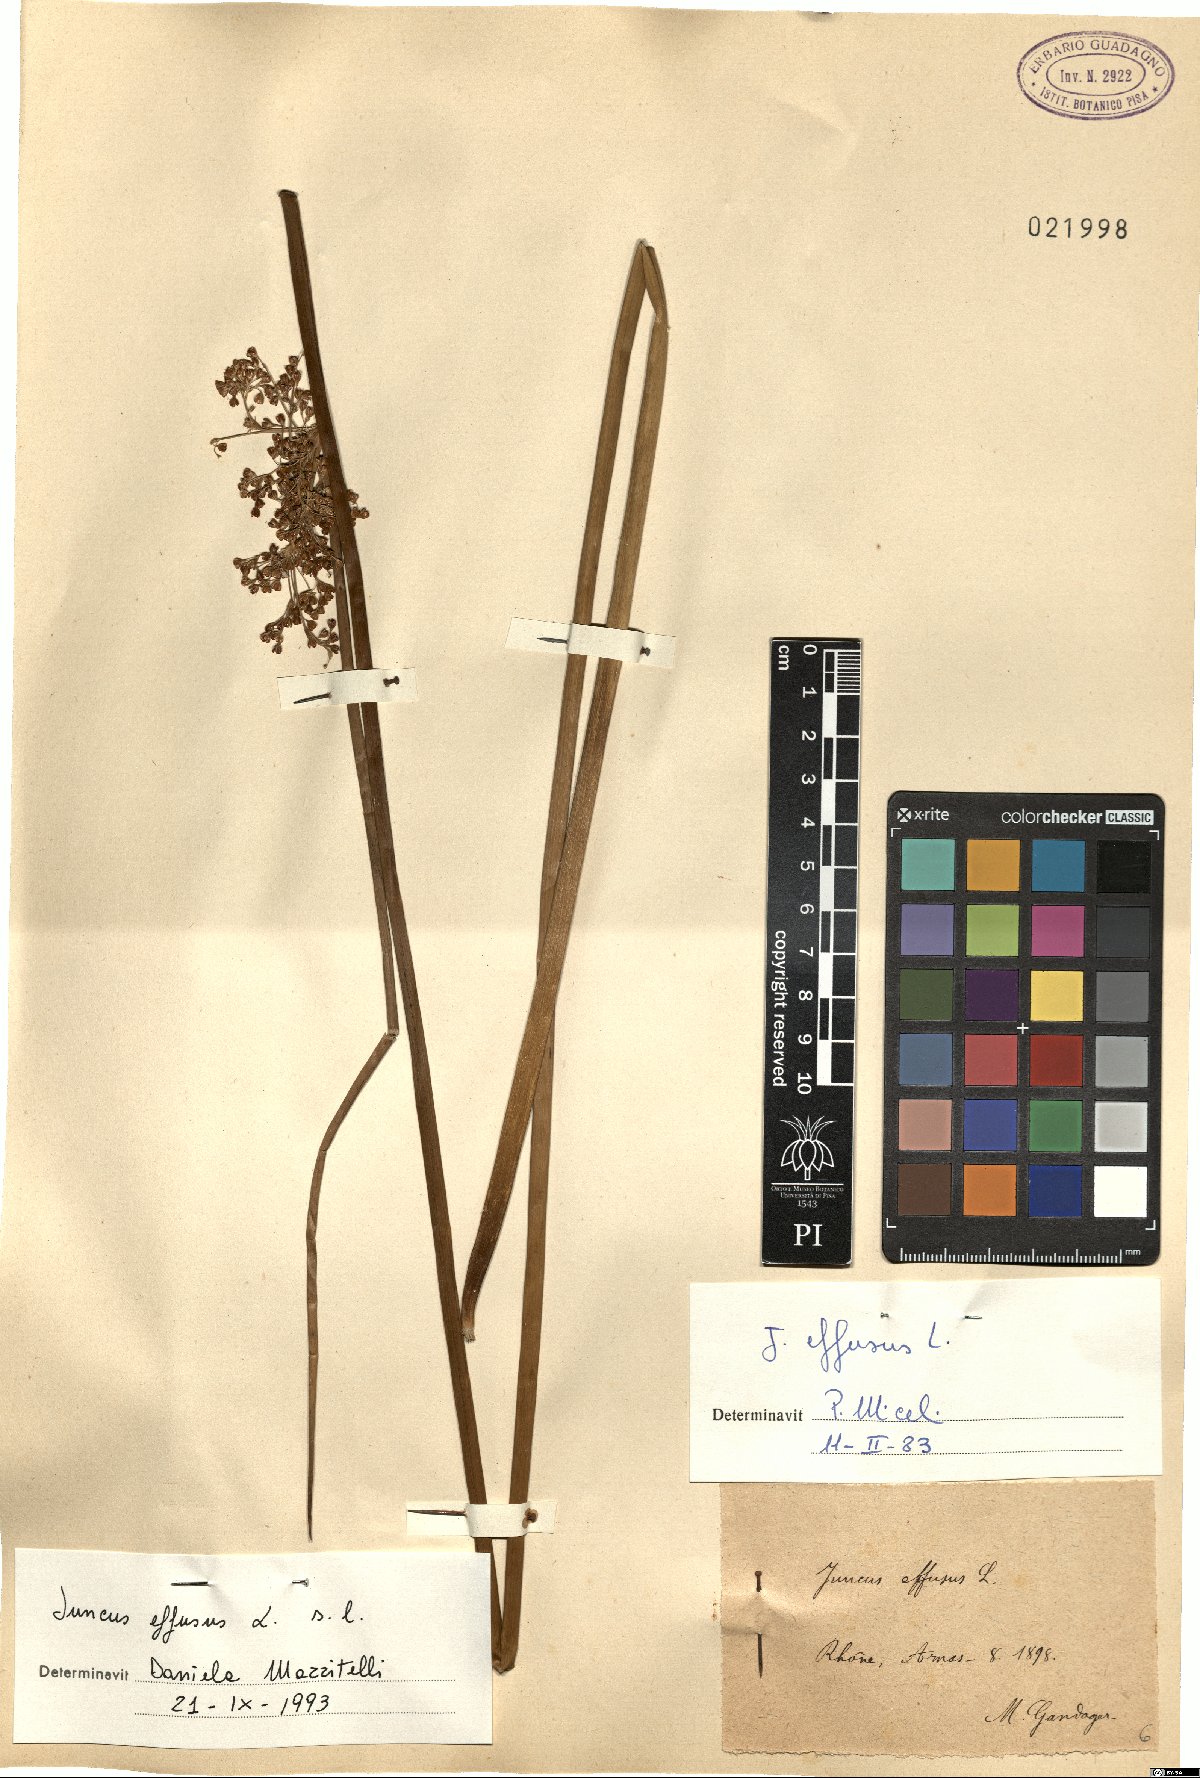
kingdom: Plantae
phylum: Tracheophyta
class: Liliopsida
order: Poales
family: Juncaceae
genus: Juncus
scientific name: Juncus effusus
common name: Soft rush
